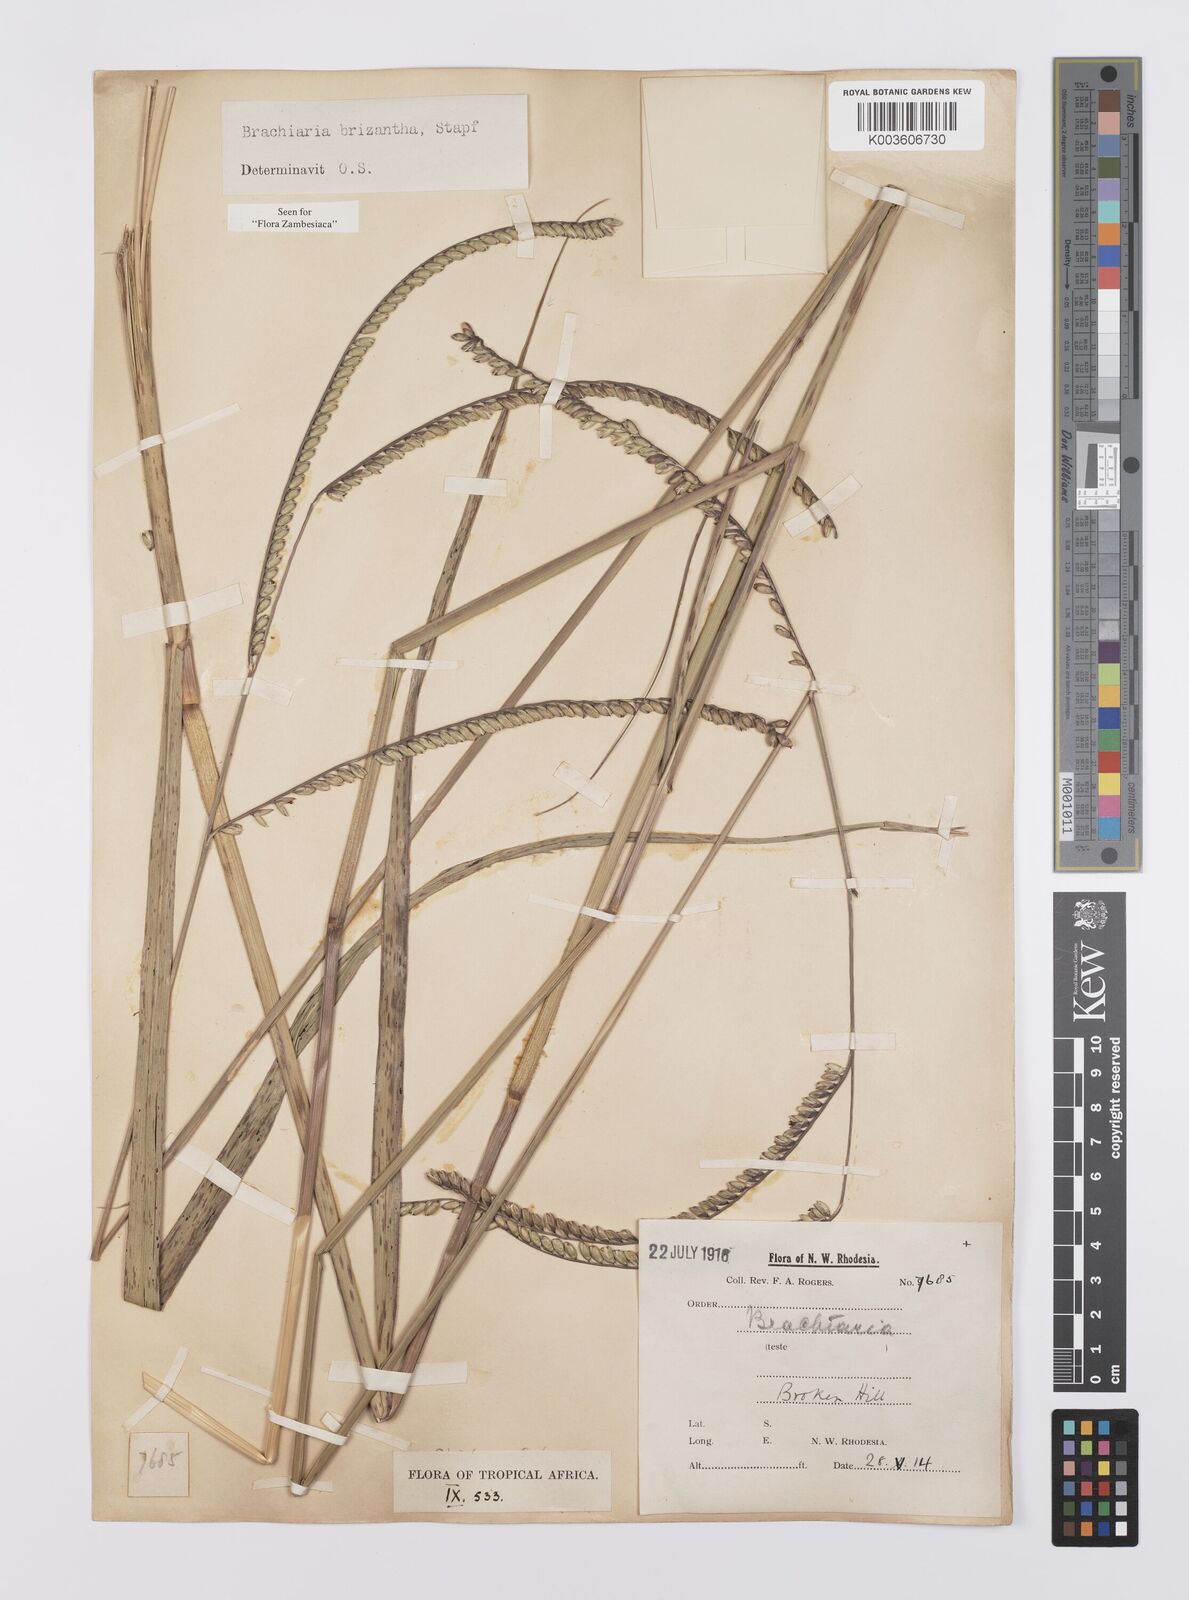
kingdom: Plantae
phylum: Tracheophyta
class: Liliopsida
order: Poales
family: Poaceae
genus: Urochloa
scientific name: Urochloa brizantha
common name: Palisade signalgrass
